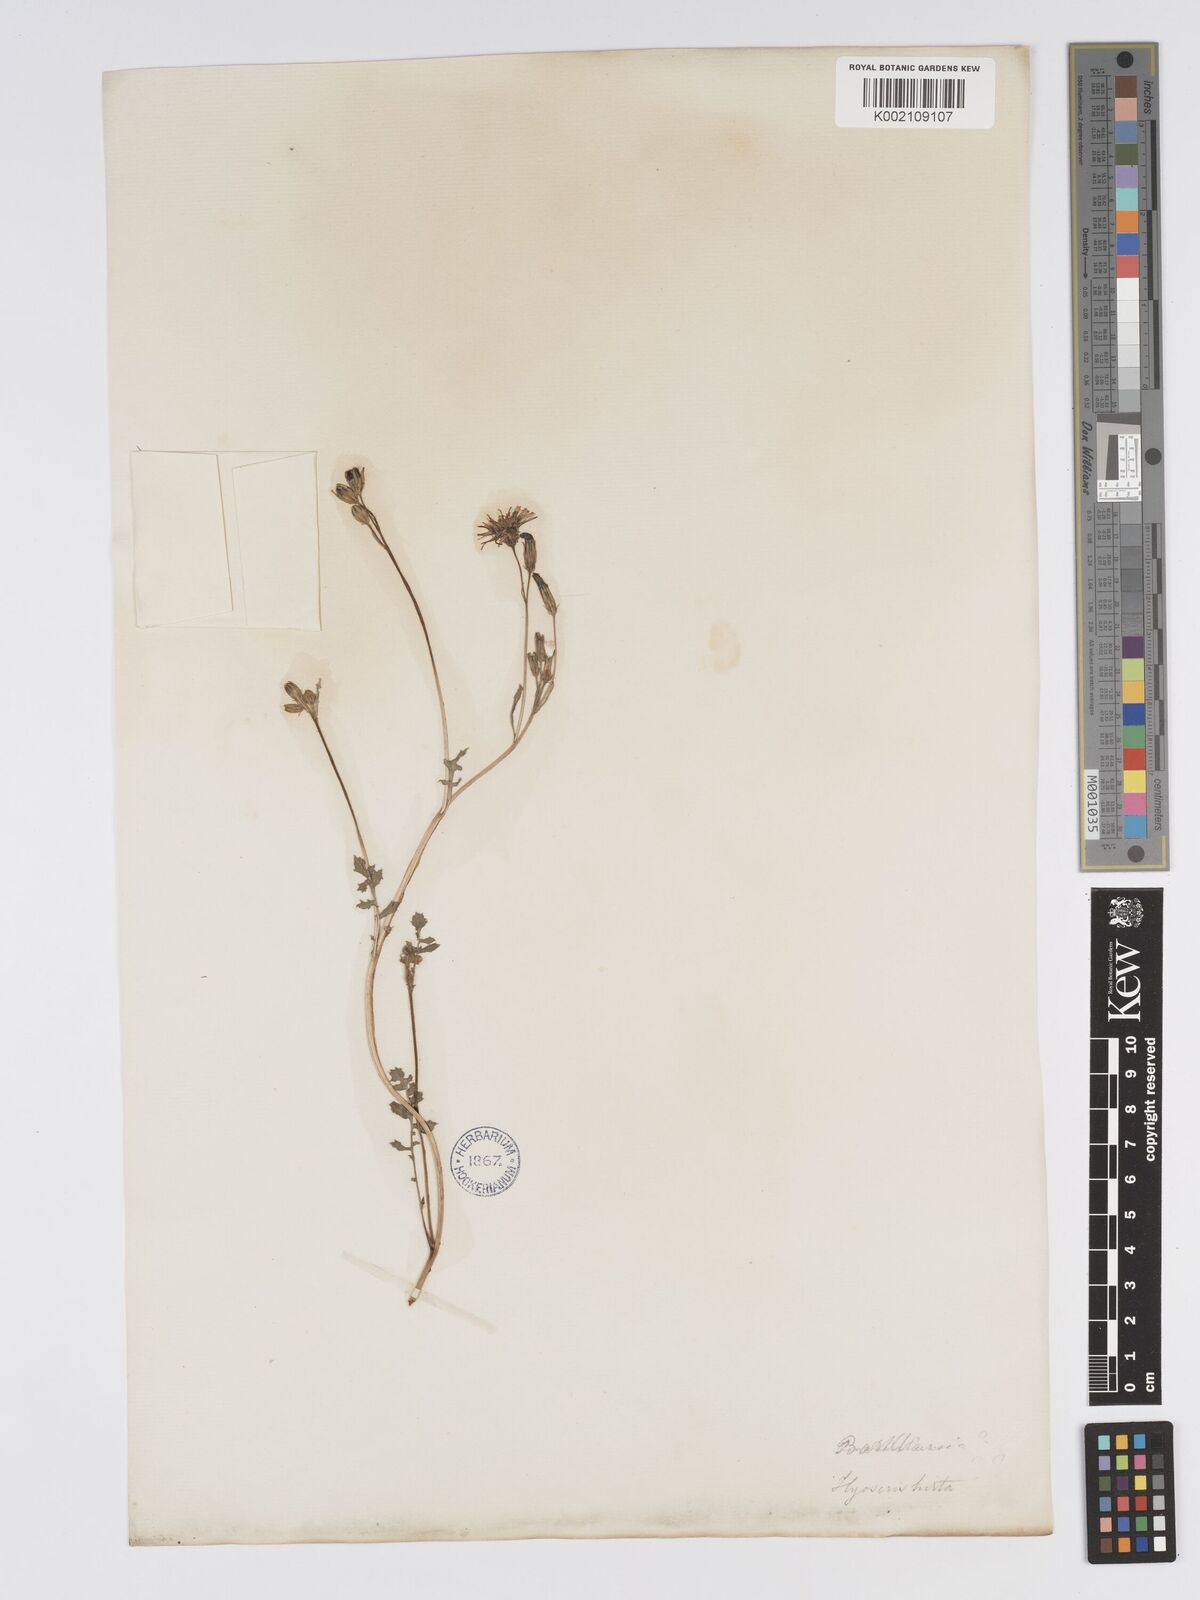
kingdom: Plantae
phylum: Tracheophyta
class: Magnoliopsida
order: Asterales
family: Asteraceae
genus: Crepis
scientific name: Crepis bursifolia
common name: Italian hawksbeard
